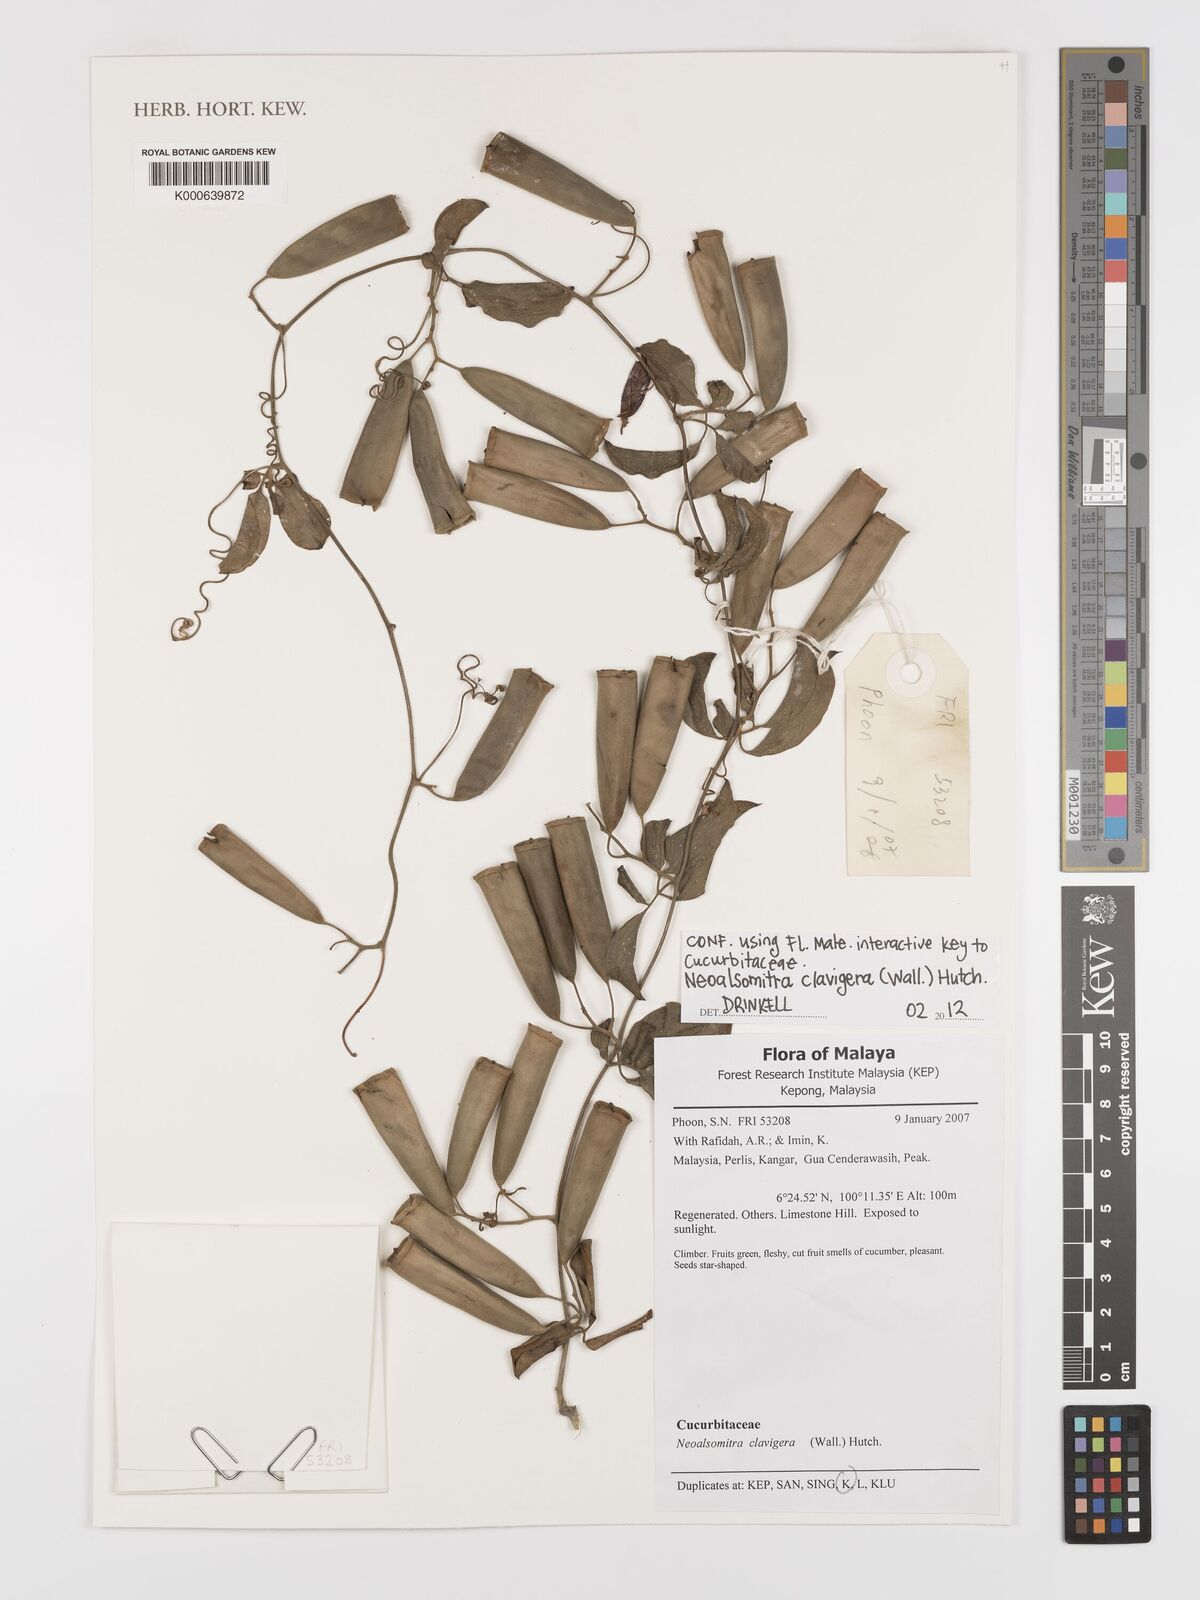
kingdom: Plantae
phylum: Tracheophyta
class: Magnoliopsida
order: Cucurbitales
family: Cucurbitaceae
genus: Neoalsomitra
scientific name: Neoalsomitra clavigera
